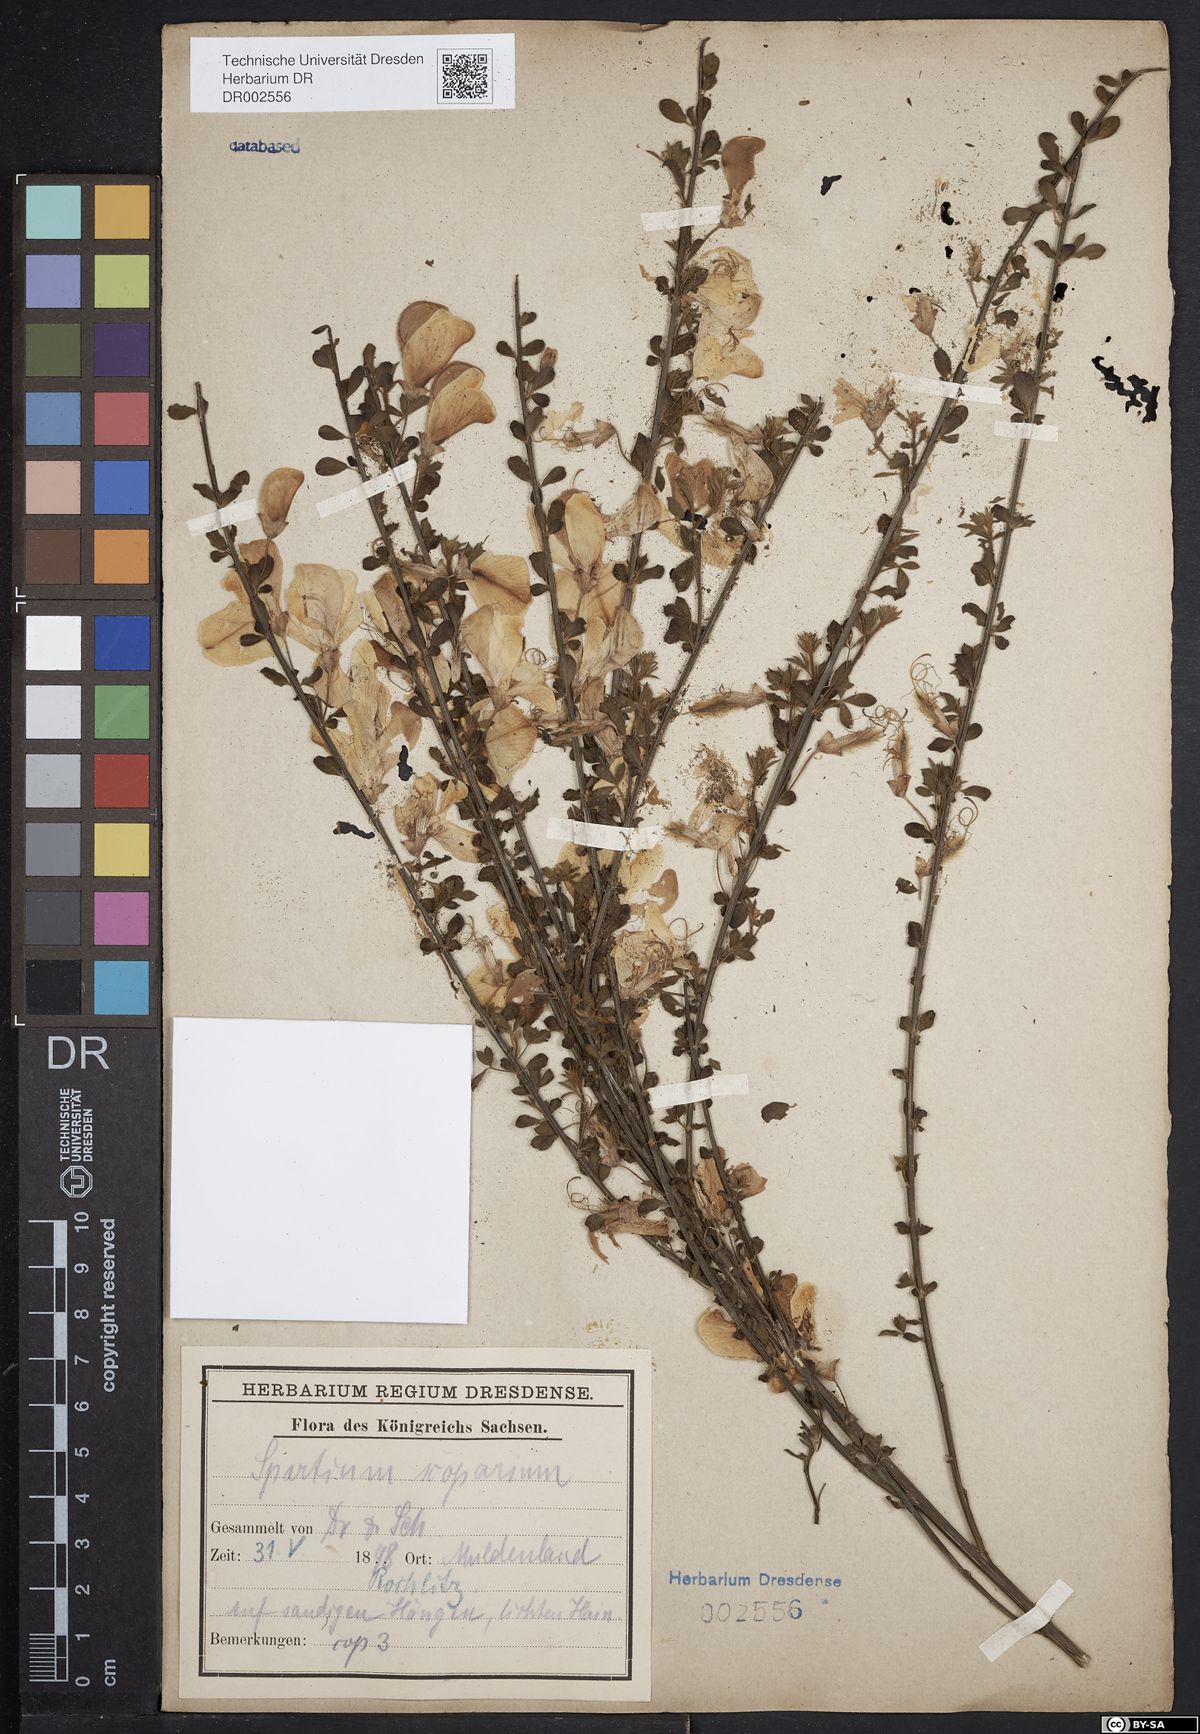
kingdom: Plantae
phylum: Tracheophyta
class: Magnoliopsida
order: Fabales
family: Fabaceae
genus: Cytisus
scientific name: Cytisus scoparius
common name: Scotch broom
